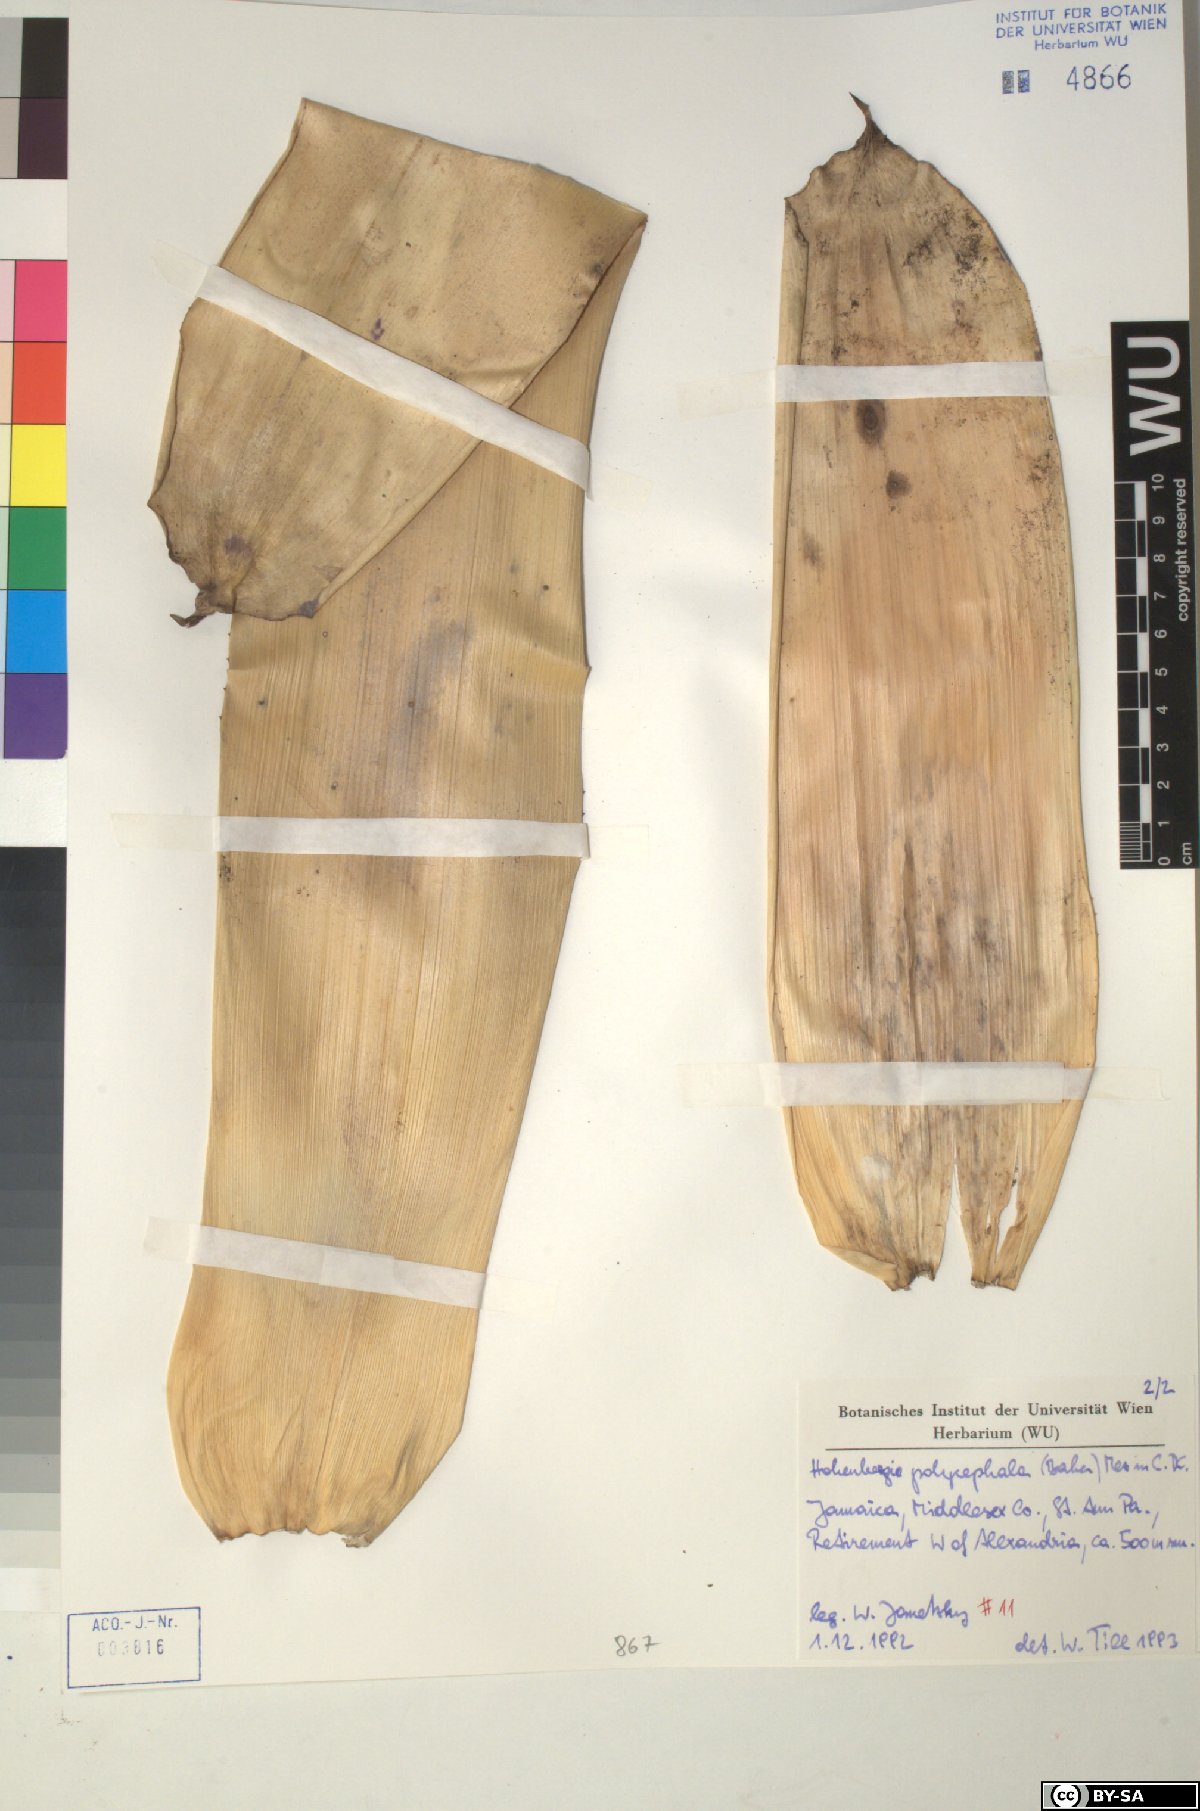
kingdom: Plantae
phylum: Tracheophyta
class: Liliopsida
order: Poales
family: Bromeliaceae
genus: Wittmackia
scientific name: Wittmackia polycephala
